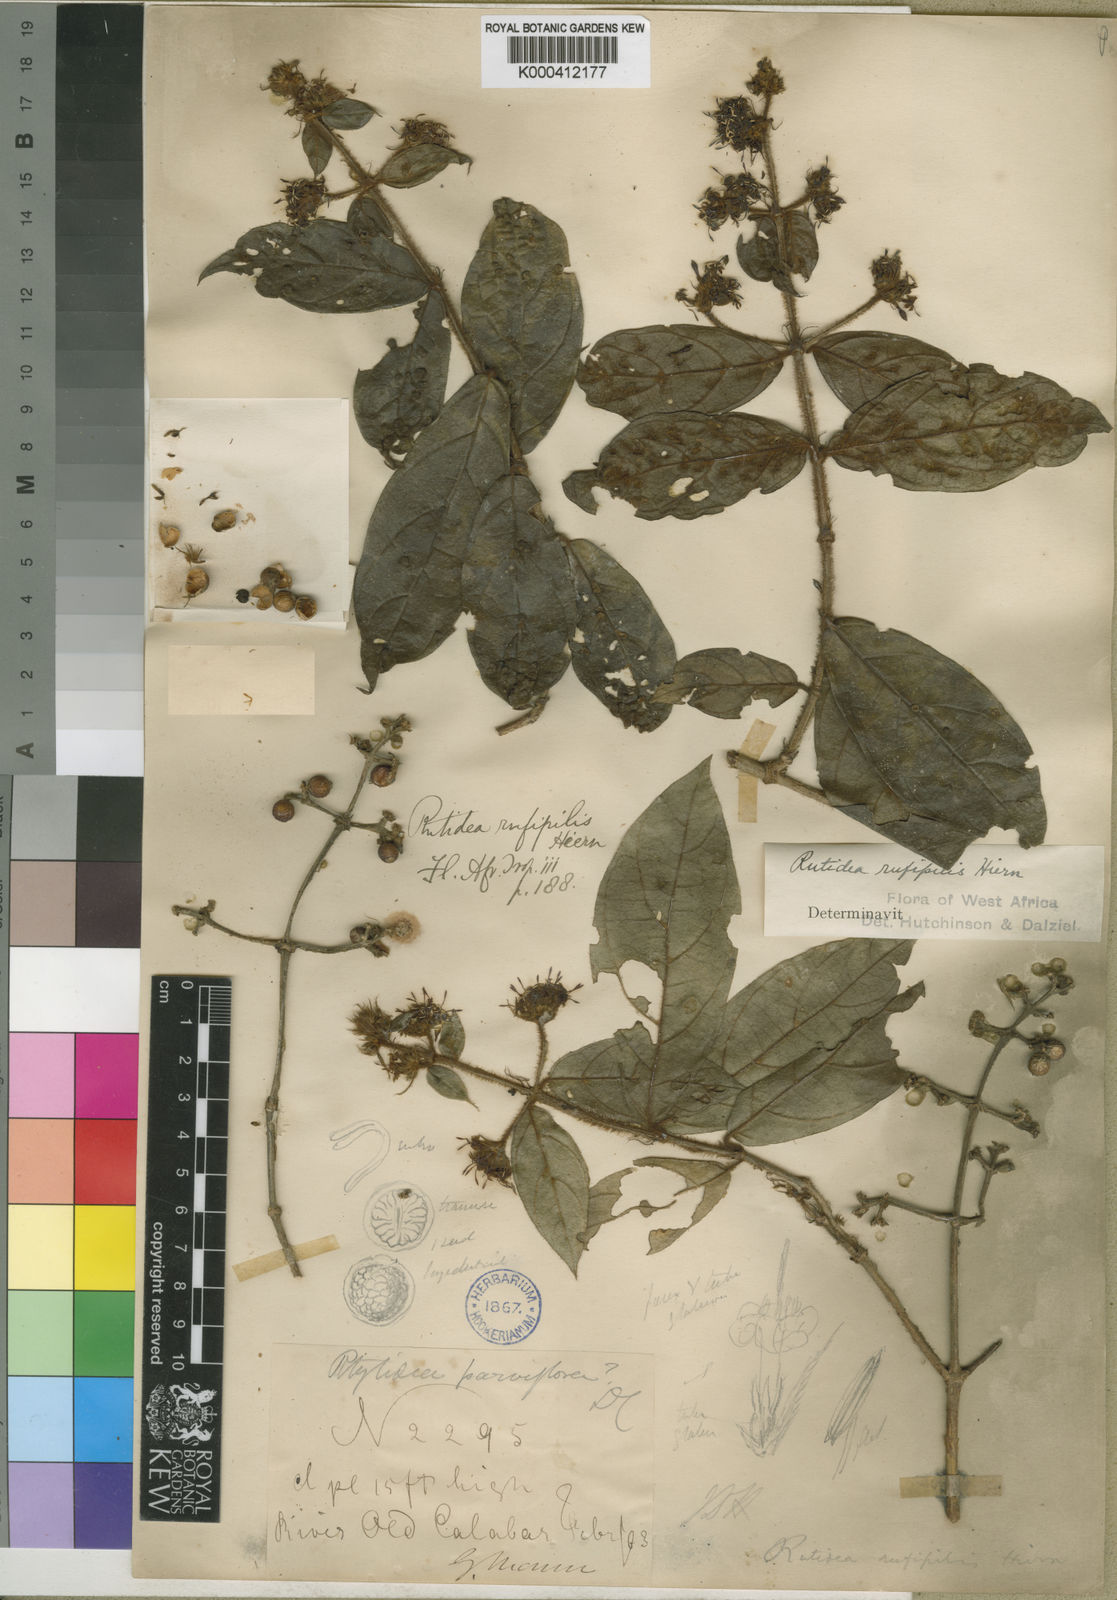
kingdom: Plantae
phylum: Tracheophyta
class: Magnoliopsida
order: Gentianales
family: Rubiaceae
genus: Rutidea
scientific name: Rutidea rufipilis
